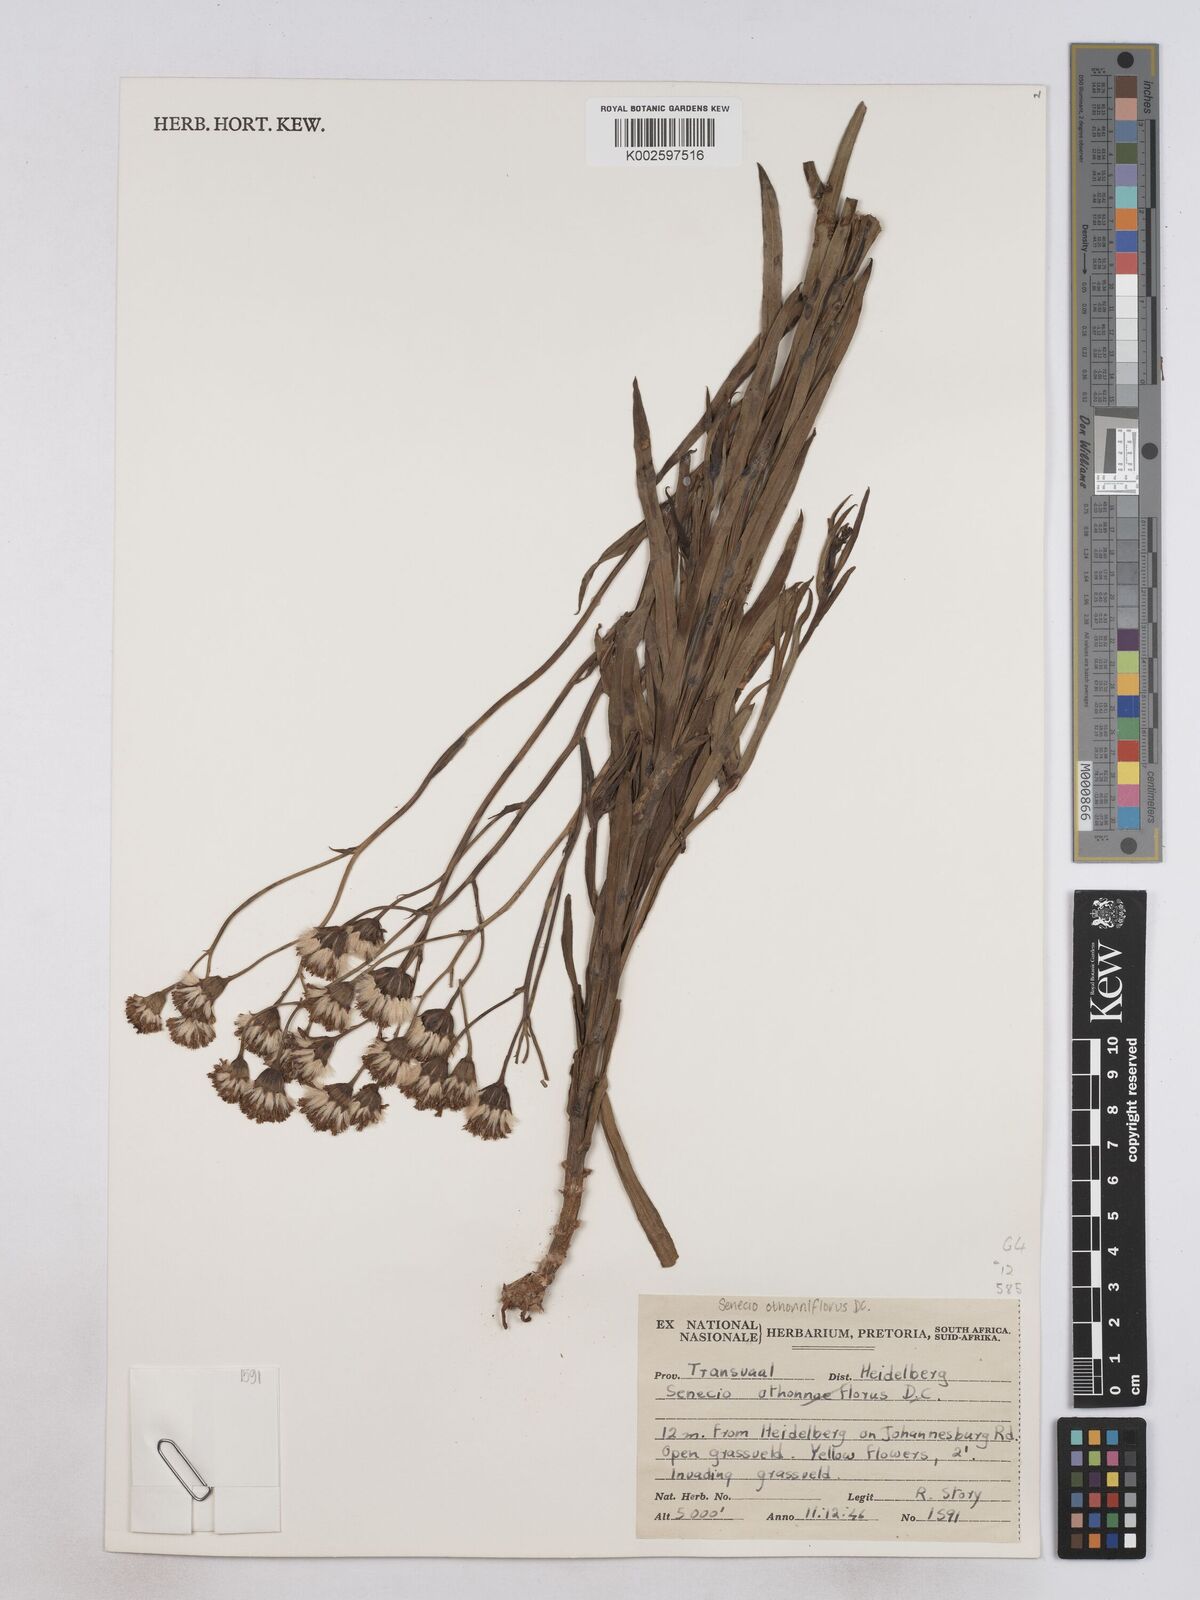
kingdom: Plantae
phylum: Tracheophyta
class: Magnoliopsida
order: Asterales
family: Asteraceae
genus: Senecio
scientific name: Senecio othonniflorus
